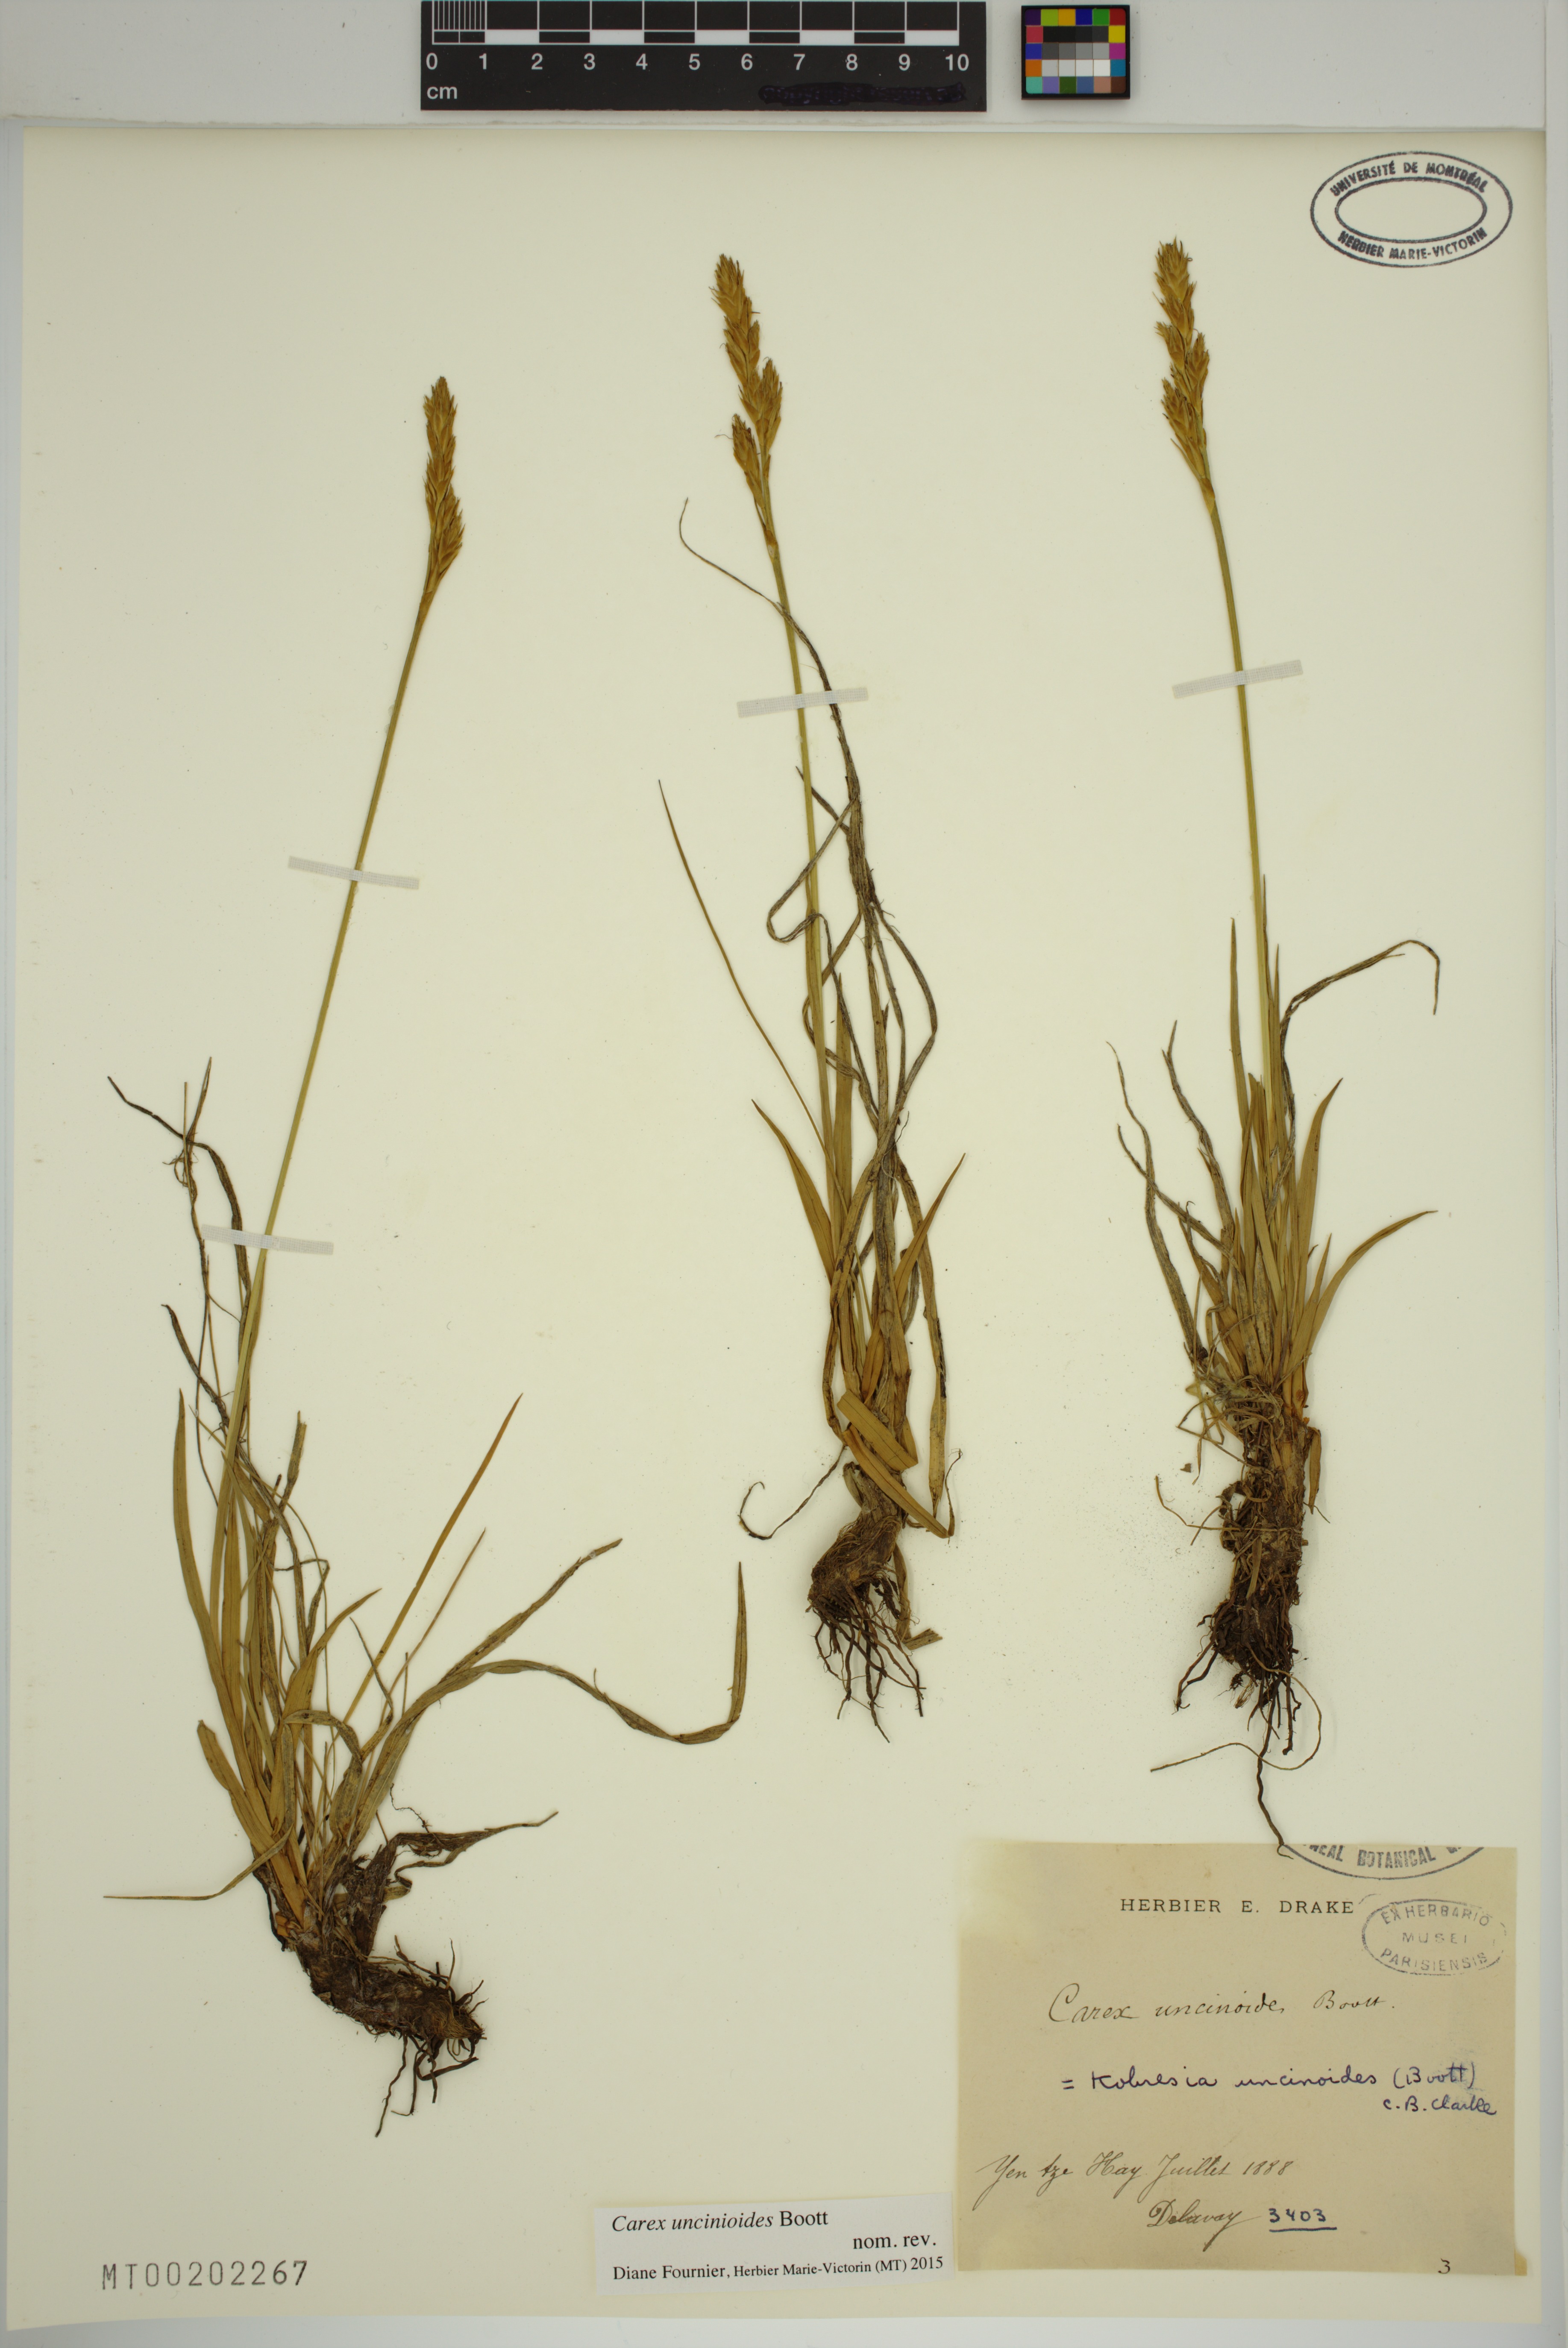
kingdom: Plantae
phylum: Tracheophyta
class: Liliopsida
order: Poales
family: Cyperaceae
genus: Carex
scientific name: Carex uncinioides
